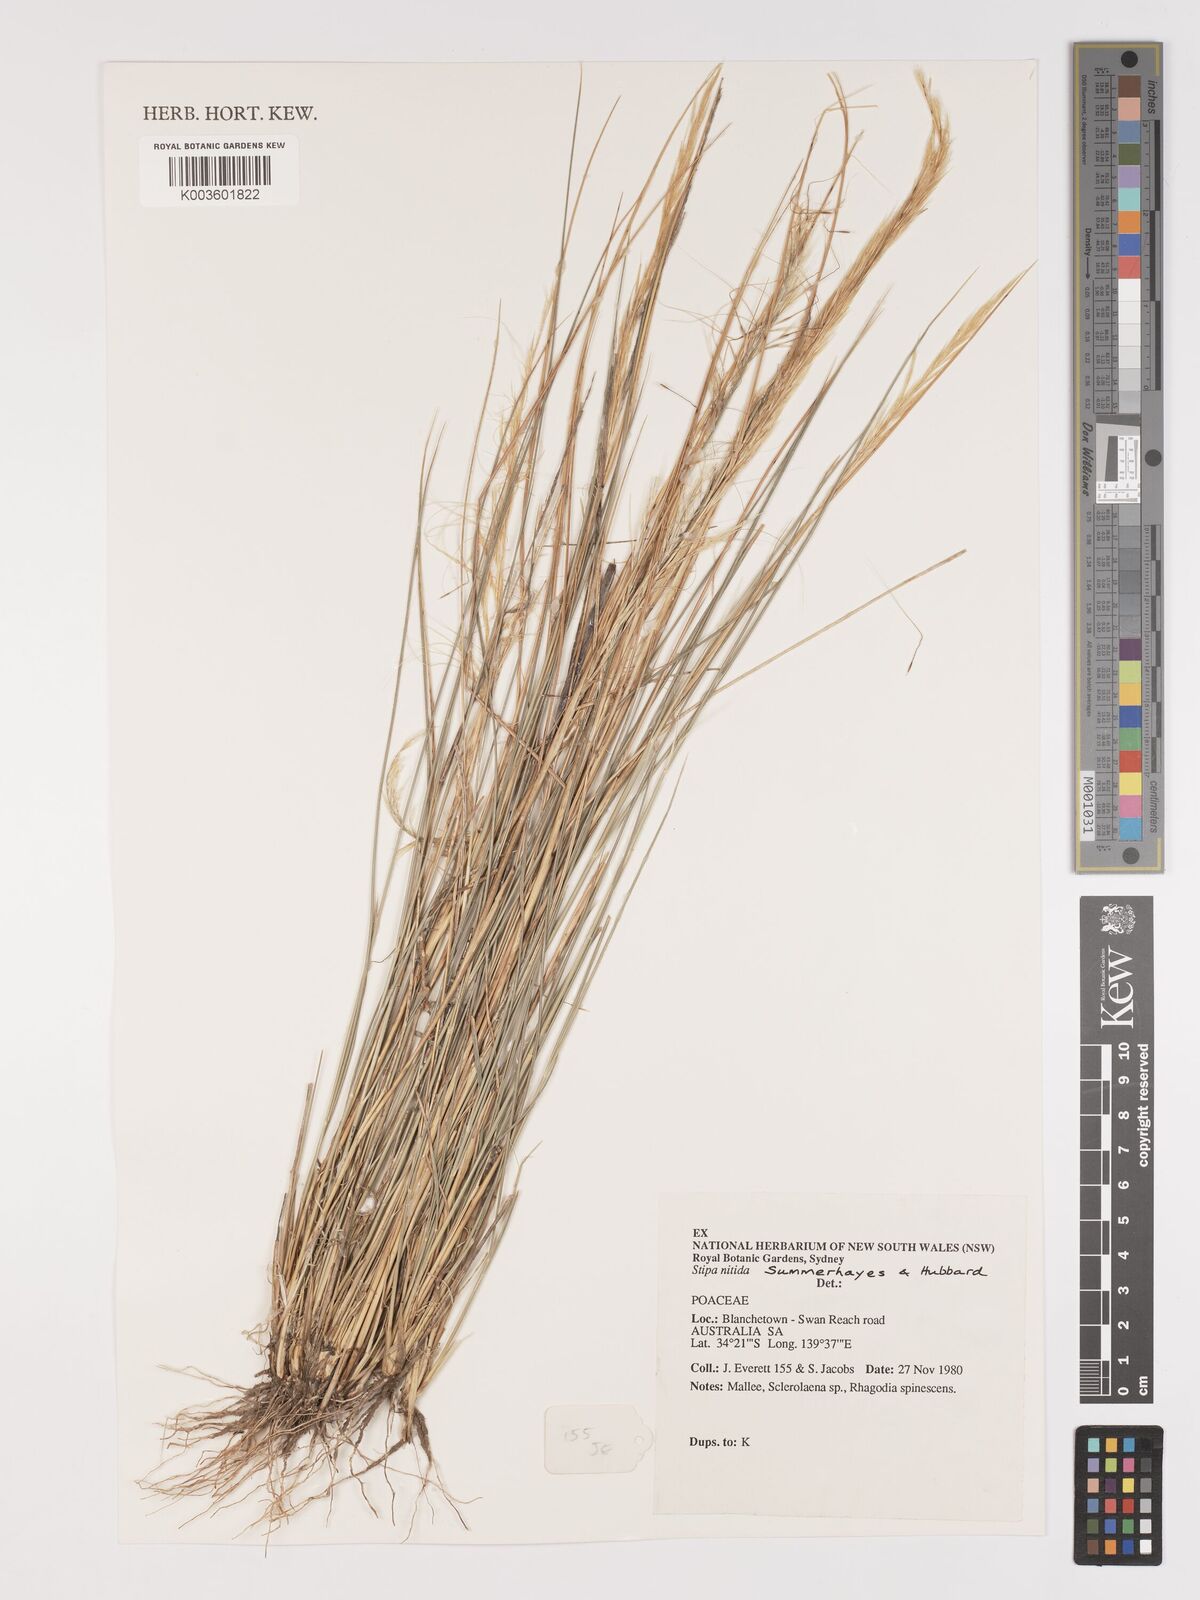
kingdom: Plantae
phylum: Tracheophyta
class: Liliopsida
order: Poales
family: Poaceae
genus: Austrostipa
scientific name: Austrostipa nitida
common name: Balcarra grass
